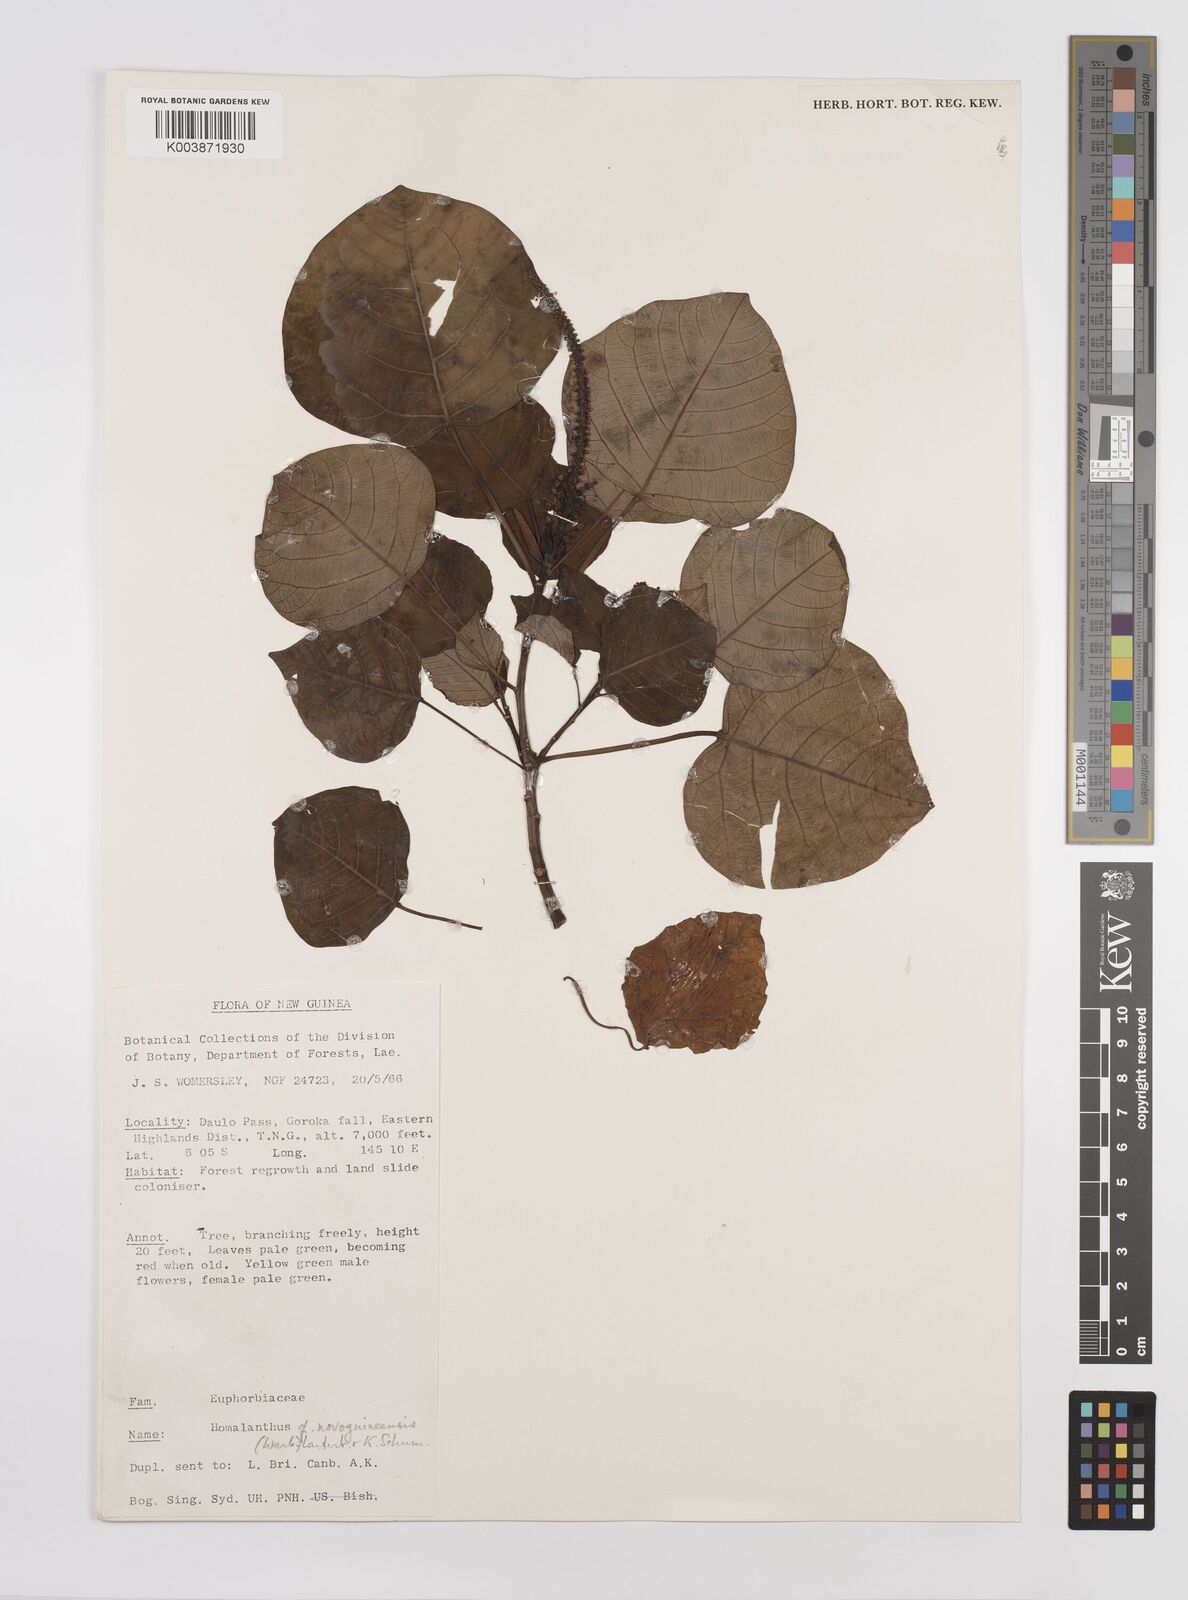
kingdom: Plantae
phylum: Tracheophyta
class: Magnoliopsida
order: Malpighiales
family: Euphorbiaceae
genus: Homalanthus
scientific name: Homalanthus novoguineensis
